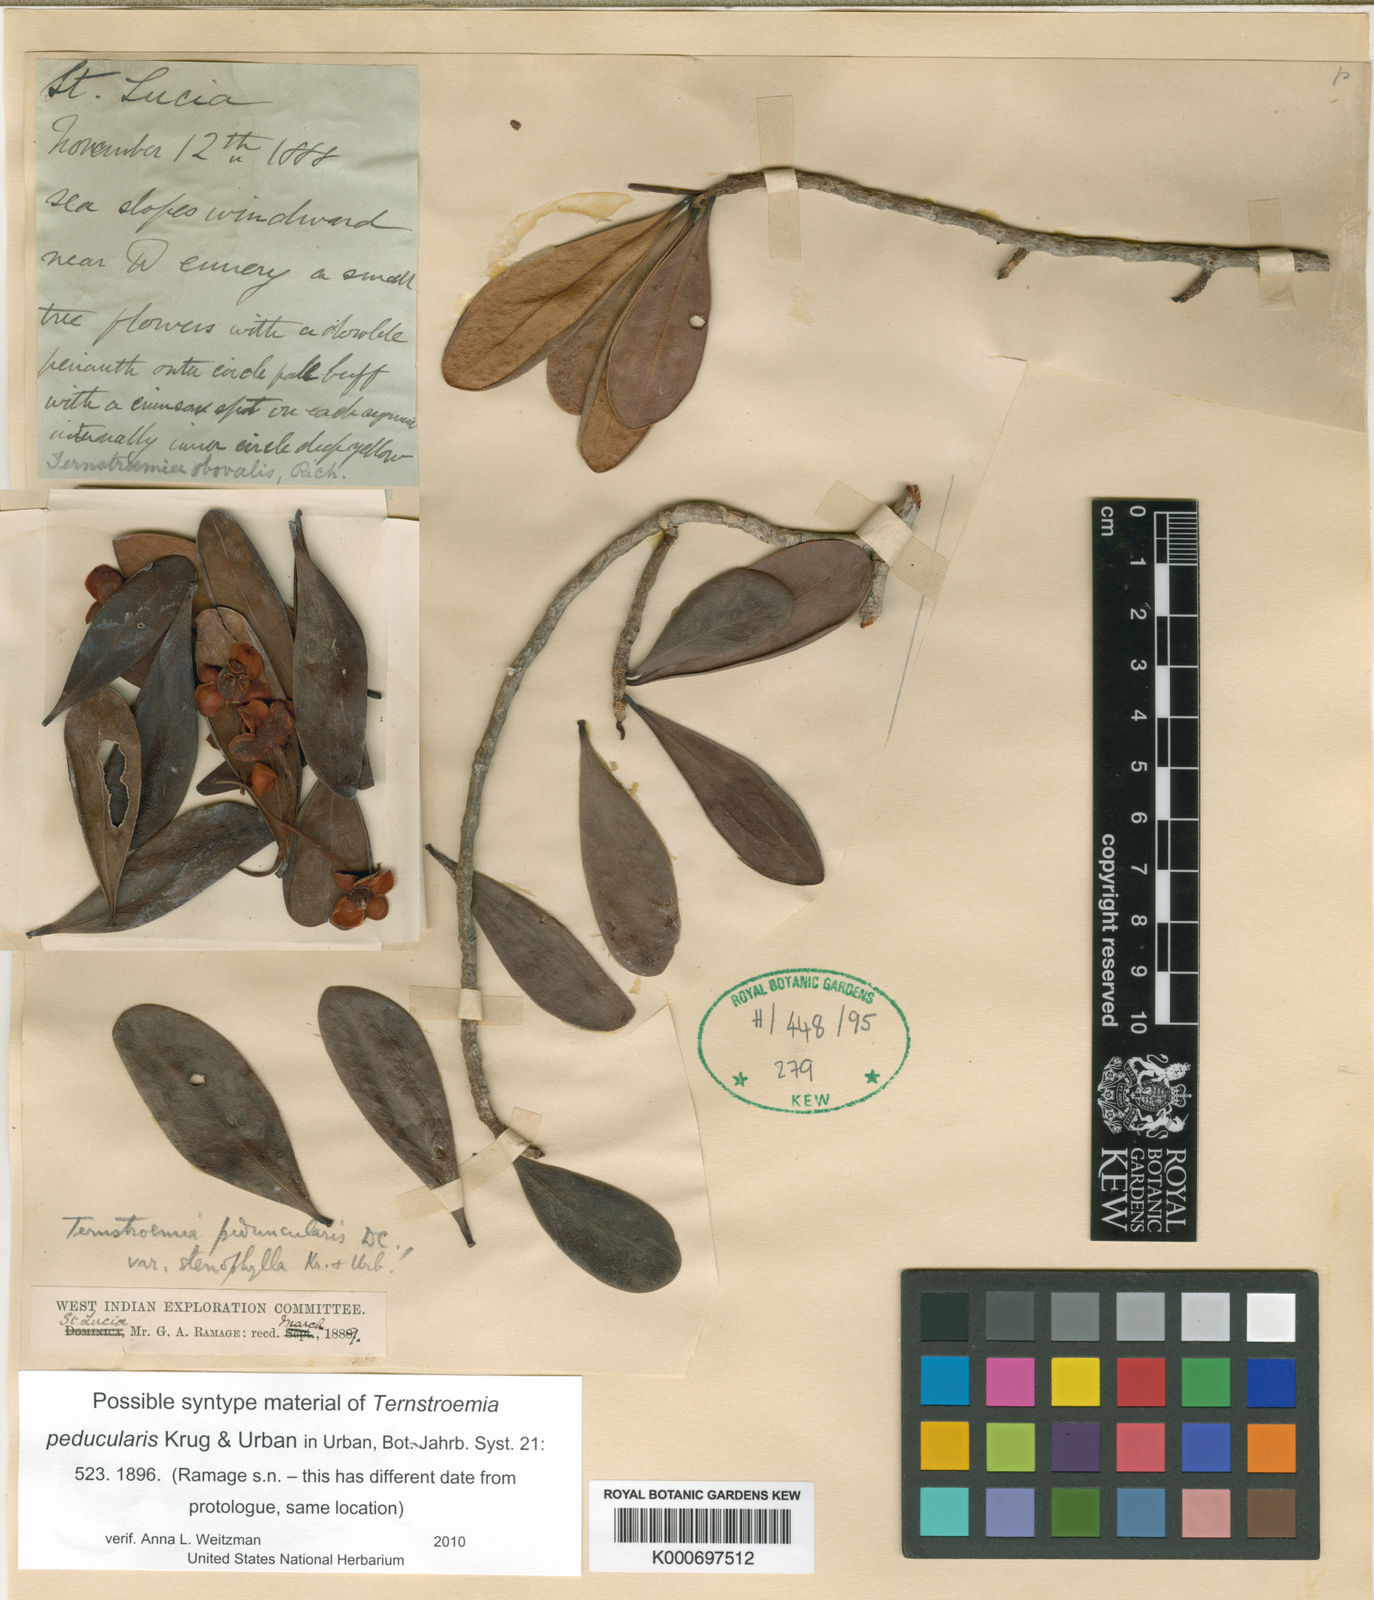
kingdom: Plantae
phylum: Tracheophyta
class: Magnoliopsida
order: Ericales
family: Pentaphylacaceae
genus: Ternstroemia
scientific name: Ternstroemia
